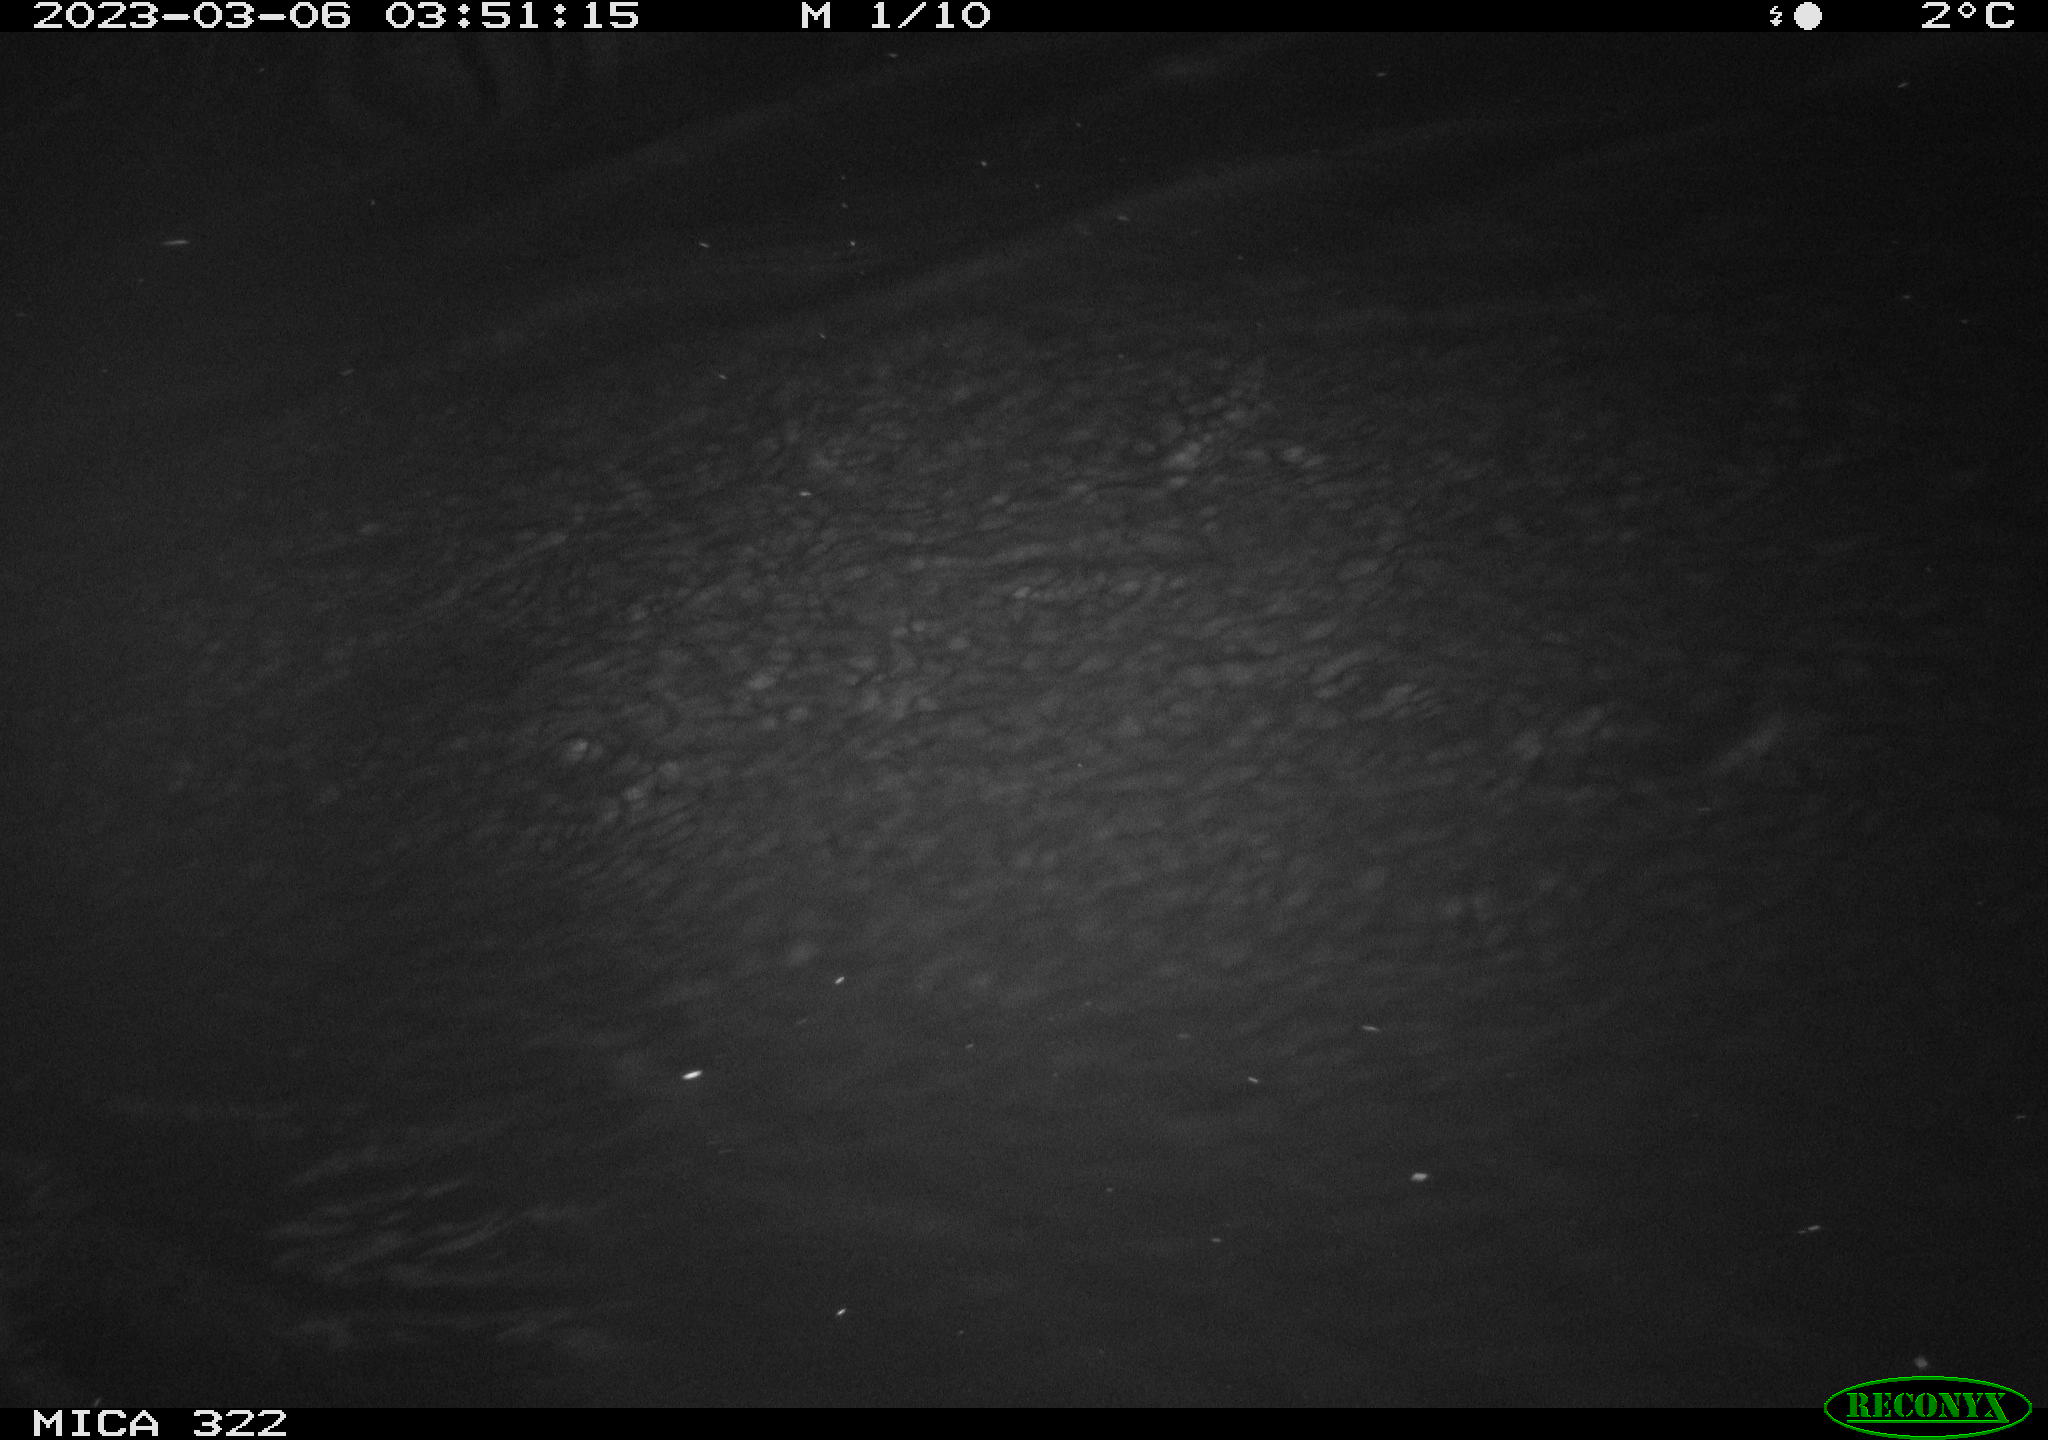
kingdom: Animalia
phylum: Chordata
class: Aves
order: Anseriformes
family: Anatidae
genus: Anas
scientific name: Anas
